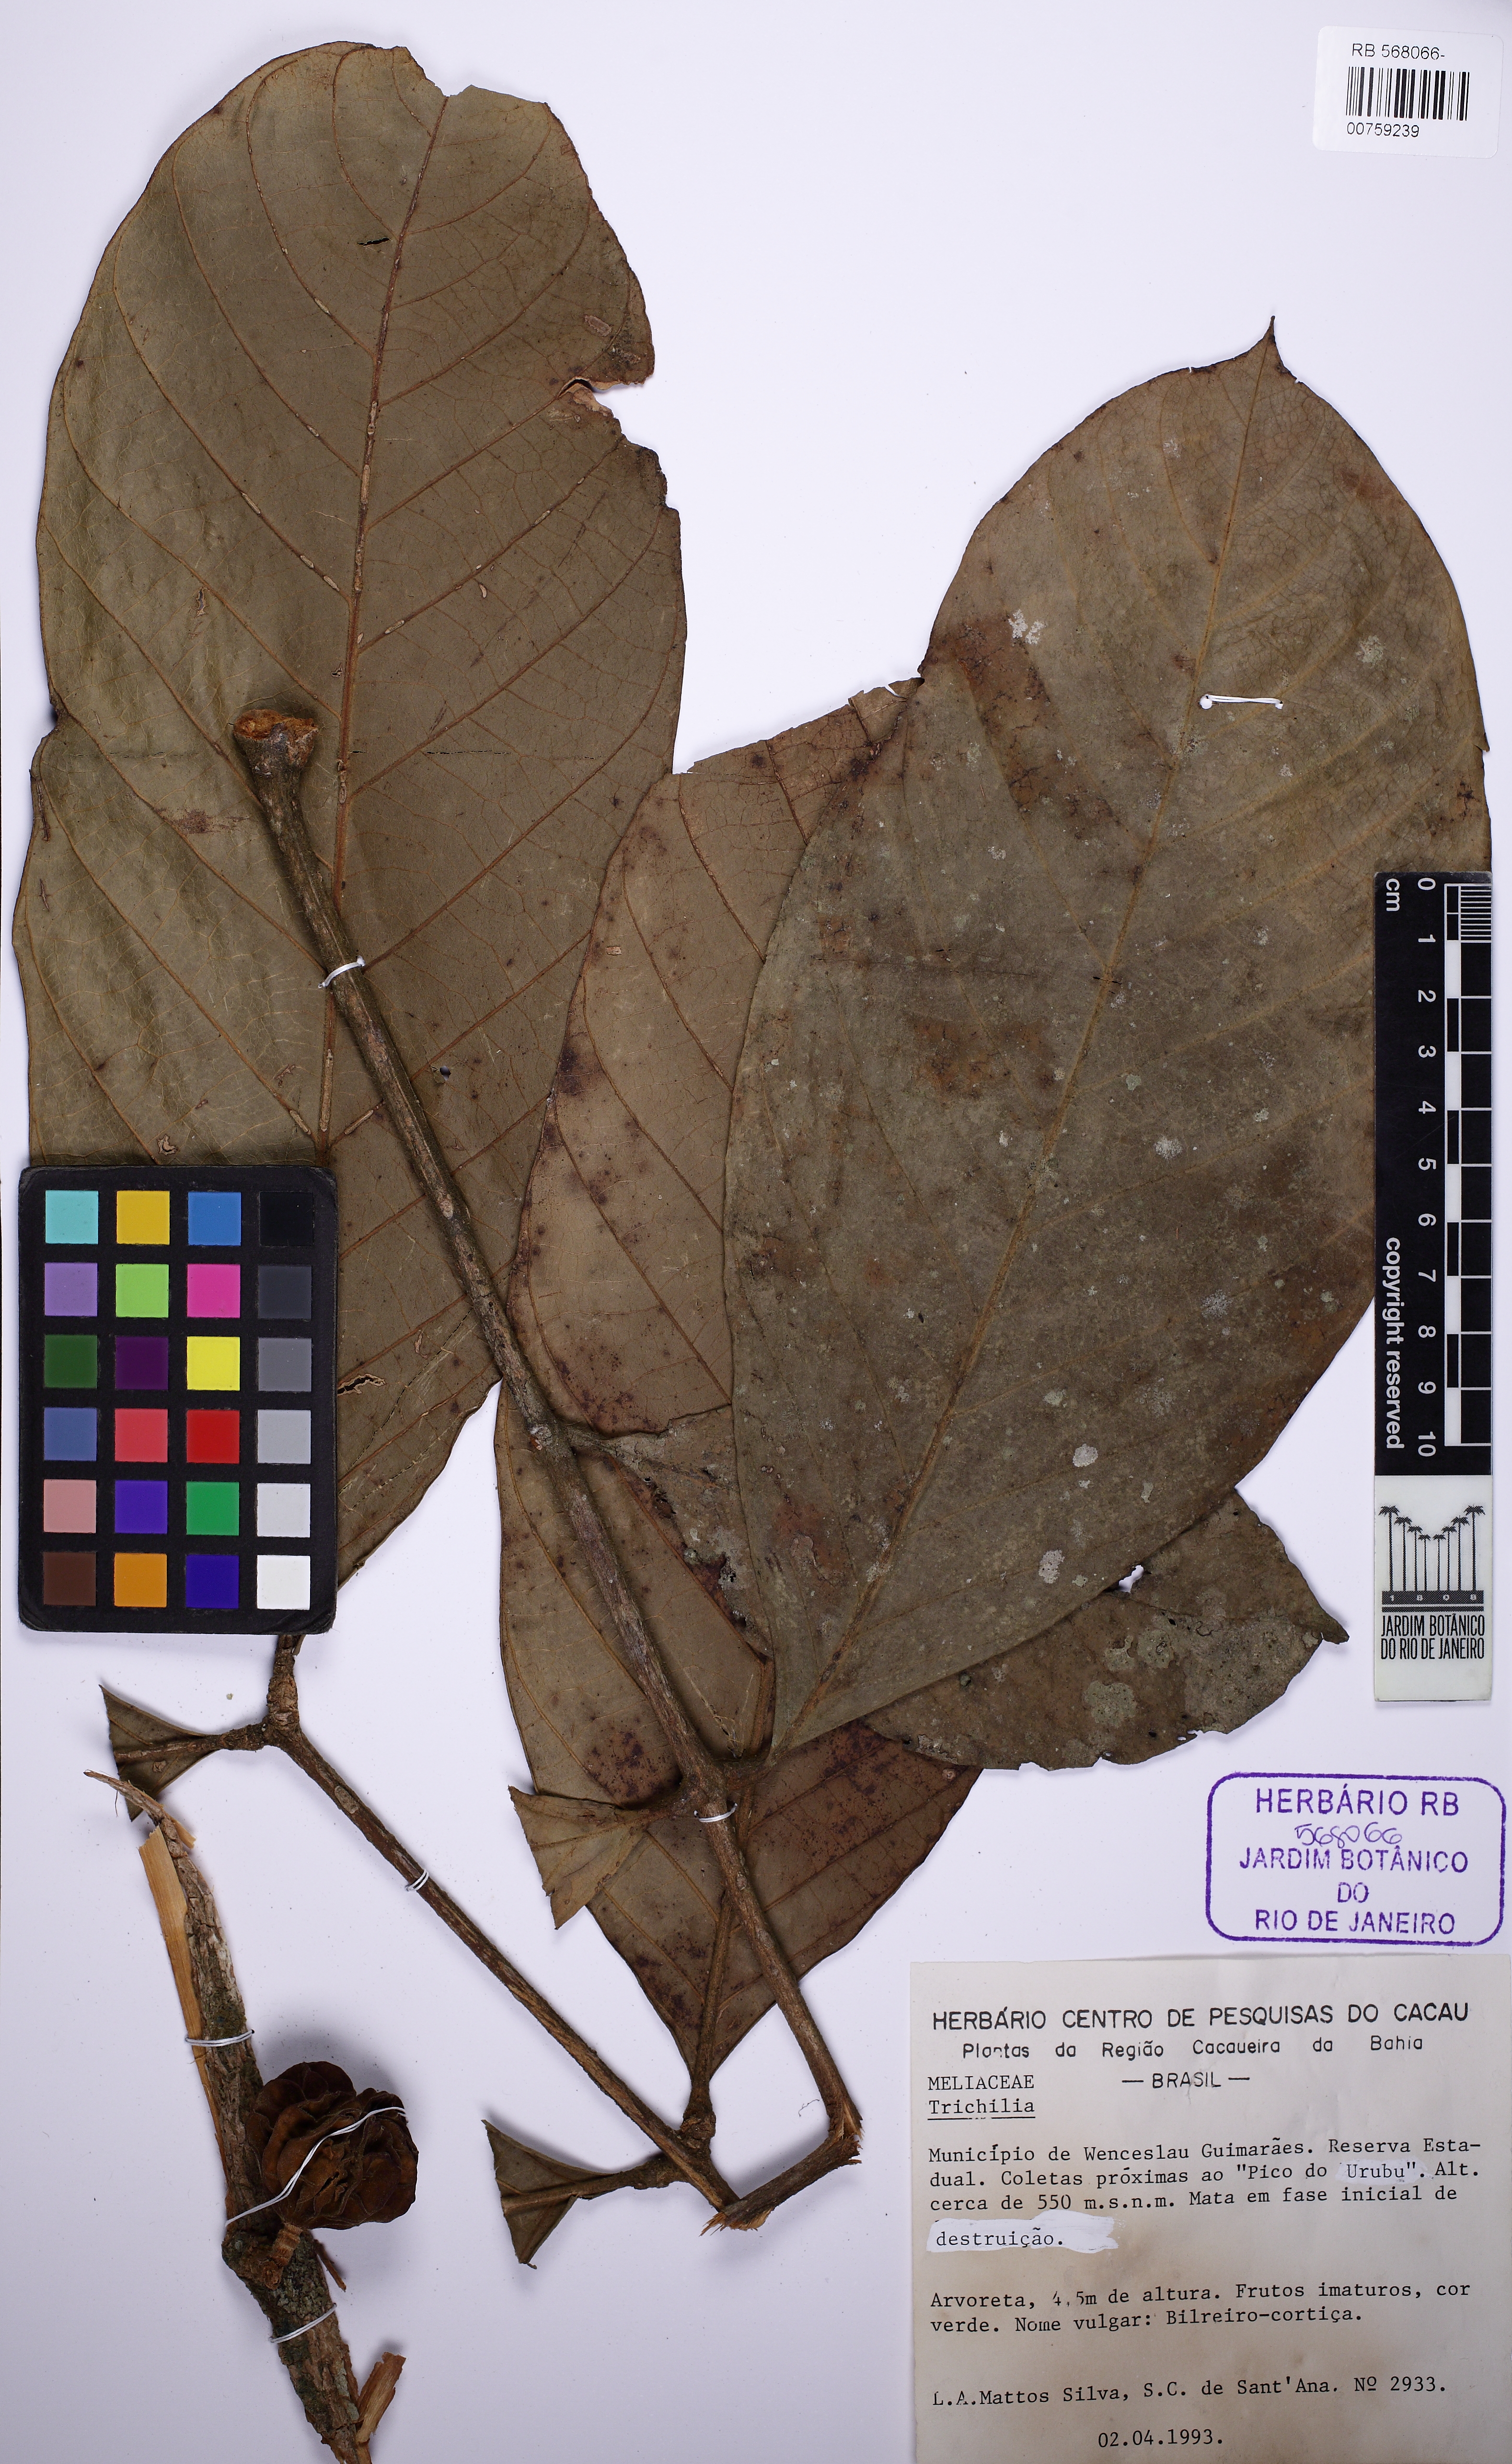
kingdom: Plantae
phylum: Tracheophyta
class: Magnoliopsida
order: Sapindales
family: Meliaceae
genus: Guarea
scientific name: Guarea
